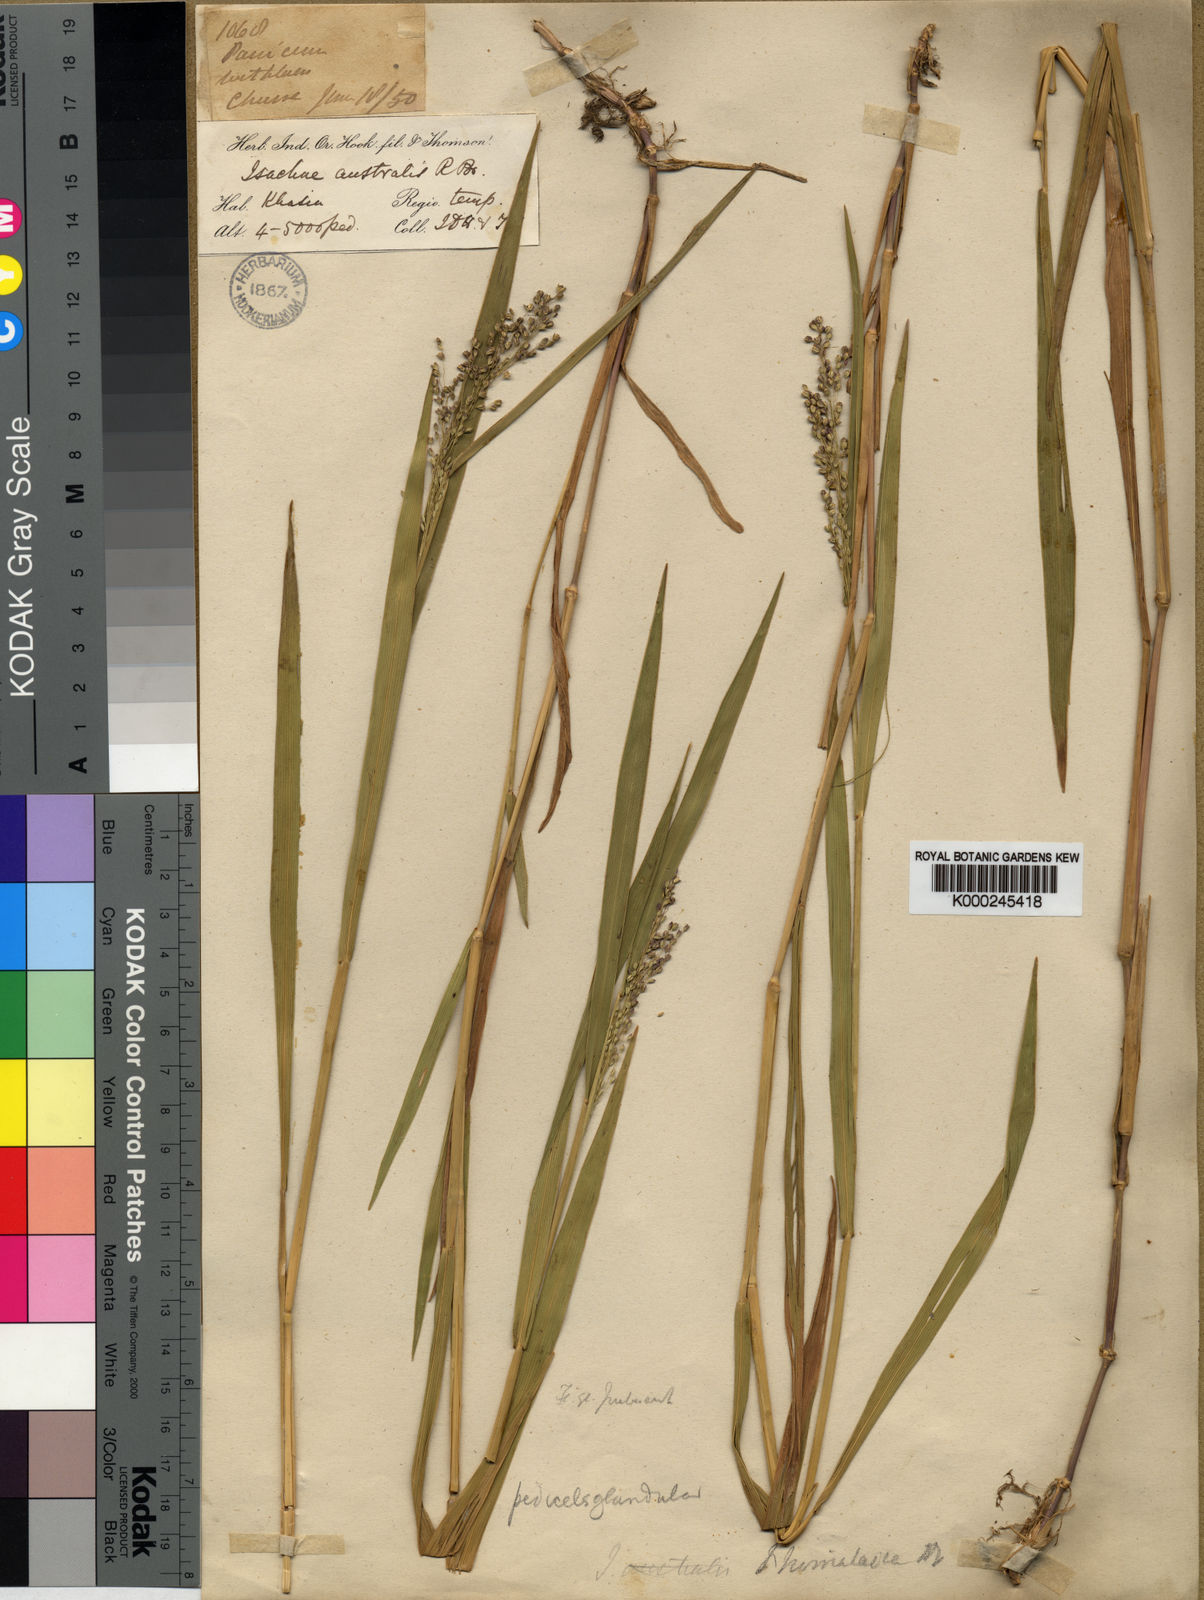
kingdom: Plantae
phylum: Tracheophyta
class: Liliopsida
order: Poales
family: Poaceae
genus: Isachne
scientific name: Isachne himalaica
